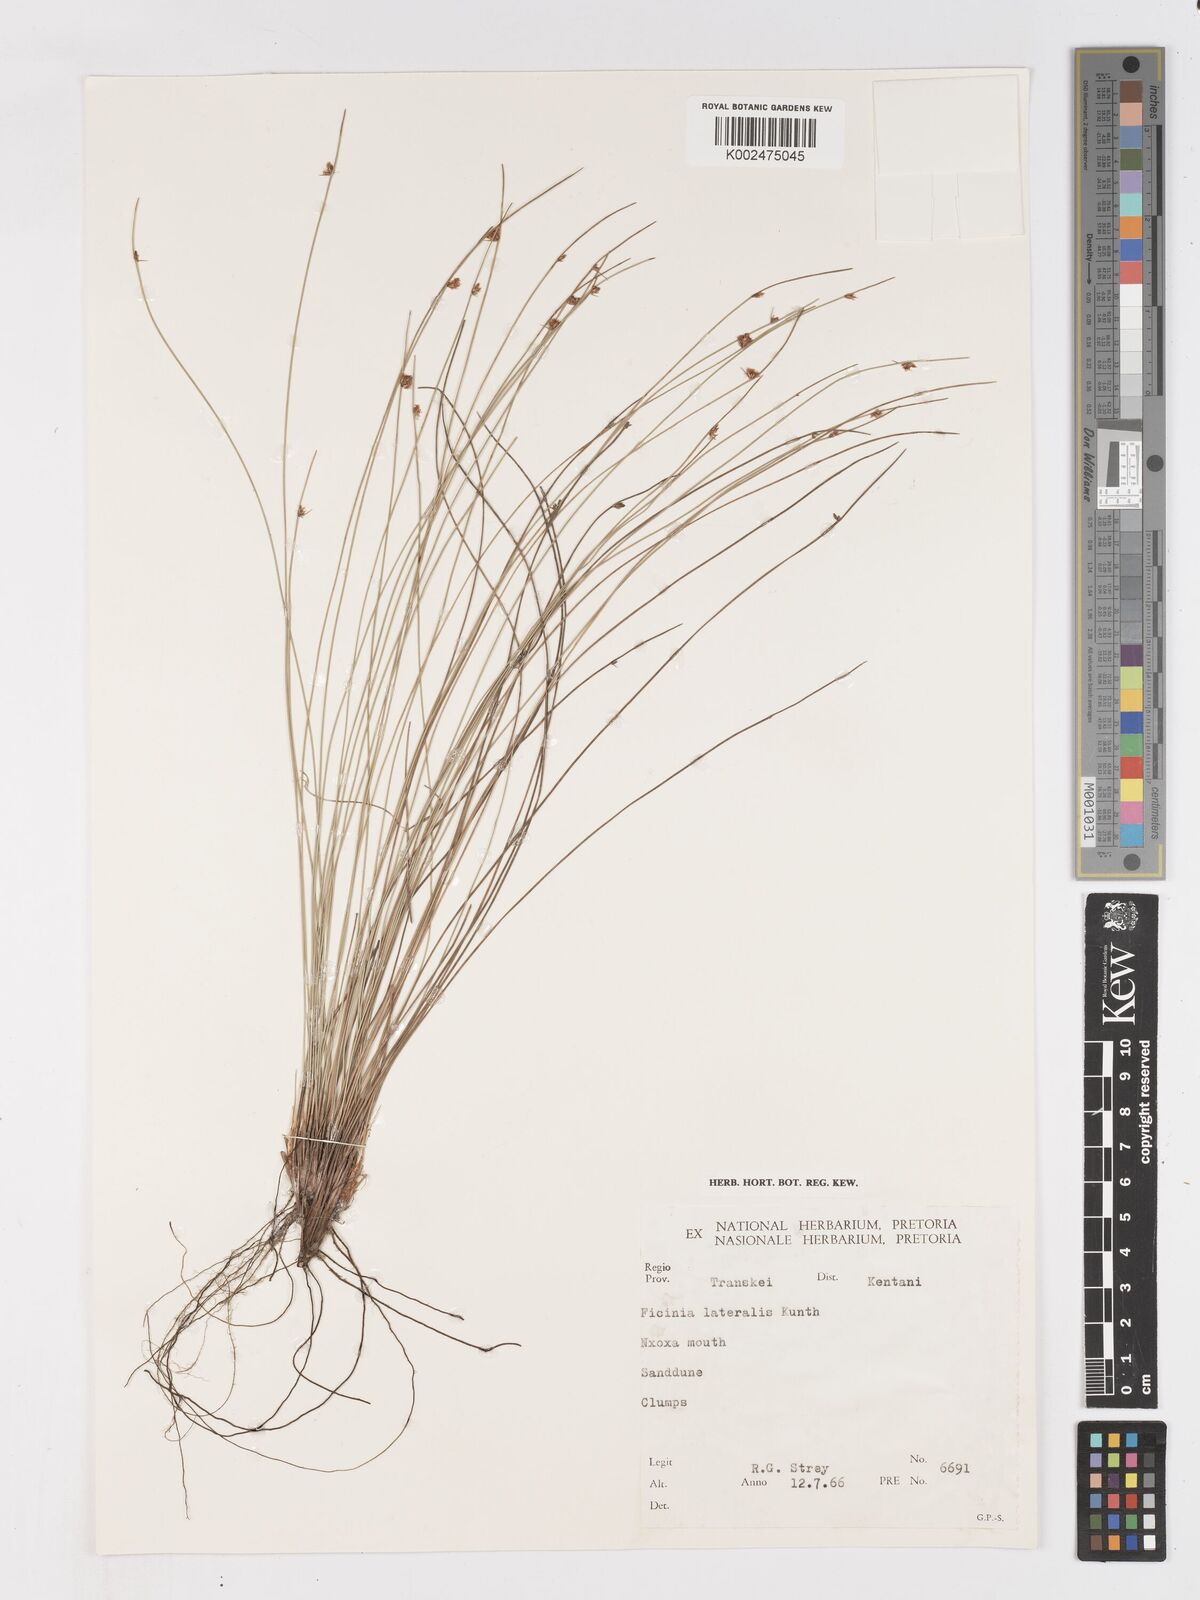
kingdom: Plantae
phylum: Tracheophyta
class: Liliopsida
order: Poales
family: Cyperaceae
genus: Ficinia
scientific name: Ficinia lateralis
